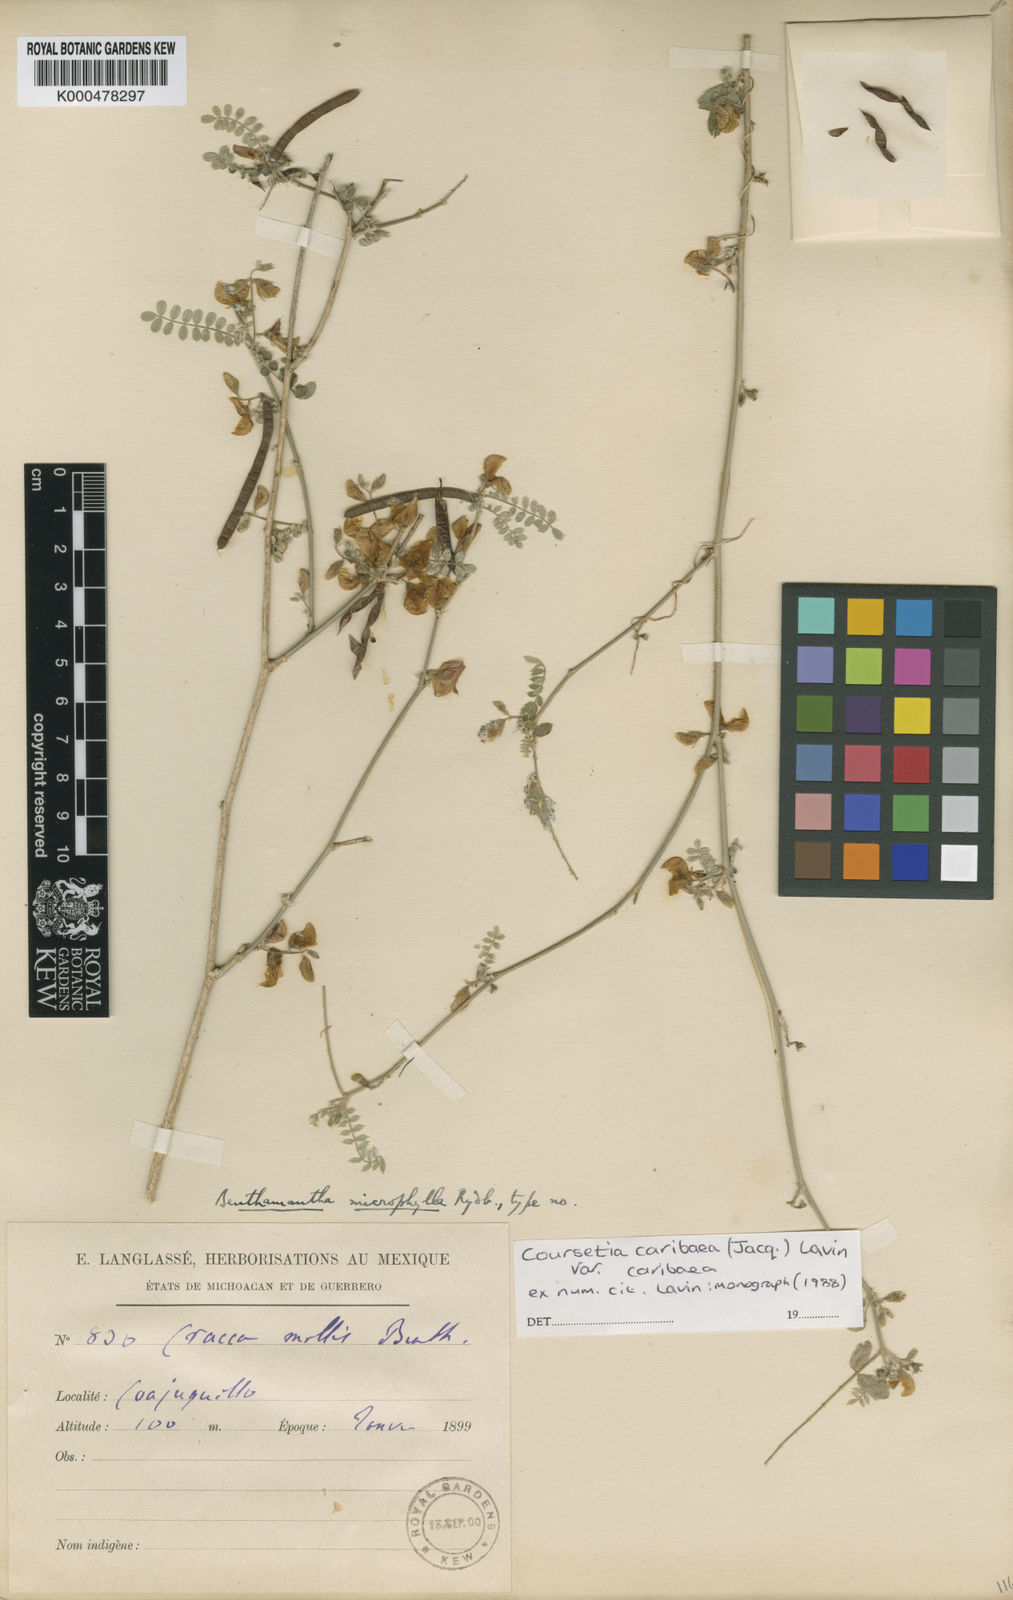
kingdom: Plantae
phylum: Tracheophyta
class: Magnoliopsida
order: Fabales
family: Fabaceae
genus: Coursetia
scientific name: Coursetia caribaea
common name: Anil falso
